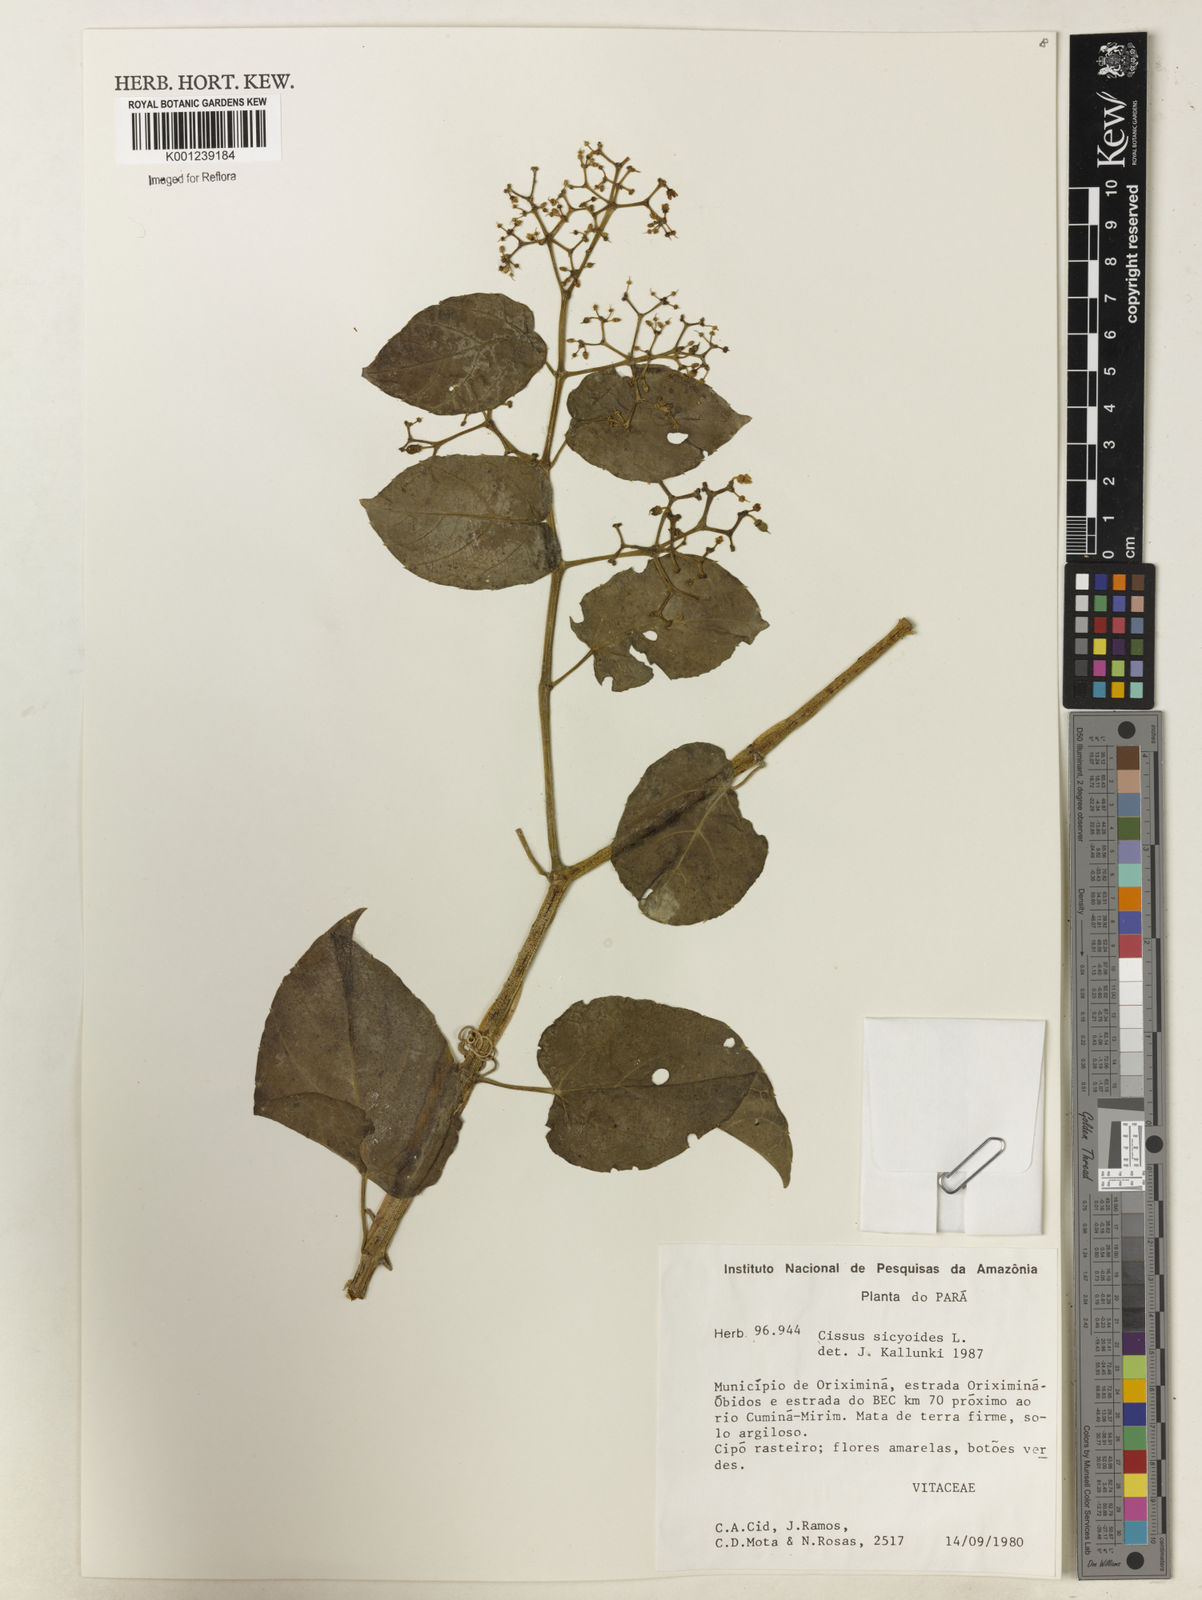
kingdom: Plantae
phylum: Tracheophyta
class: Magnoliopsida
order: Vitales
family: Vitaceae
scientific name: Vitaceae
